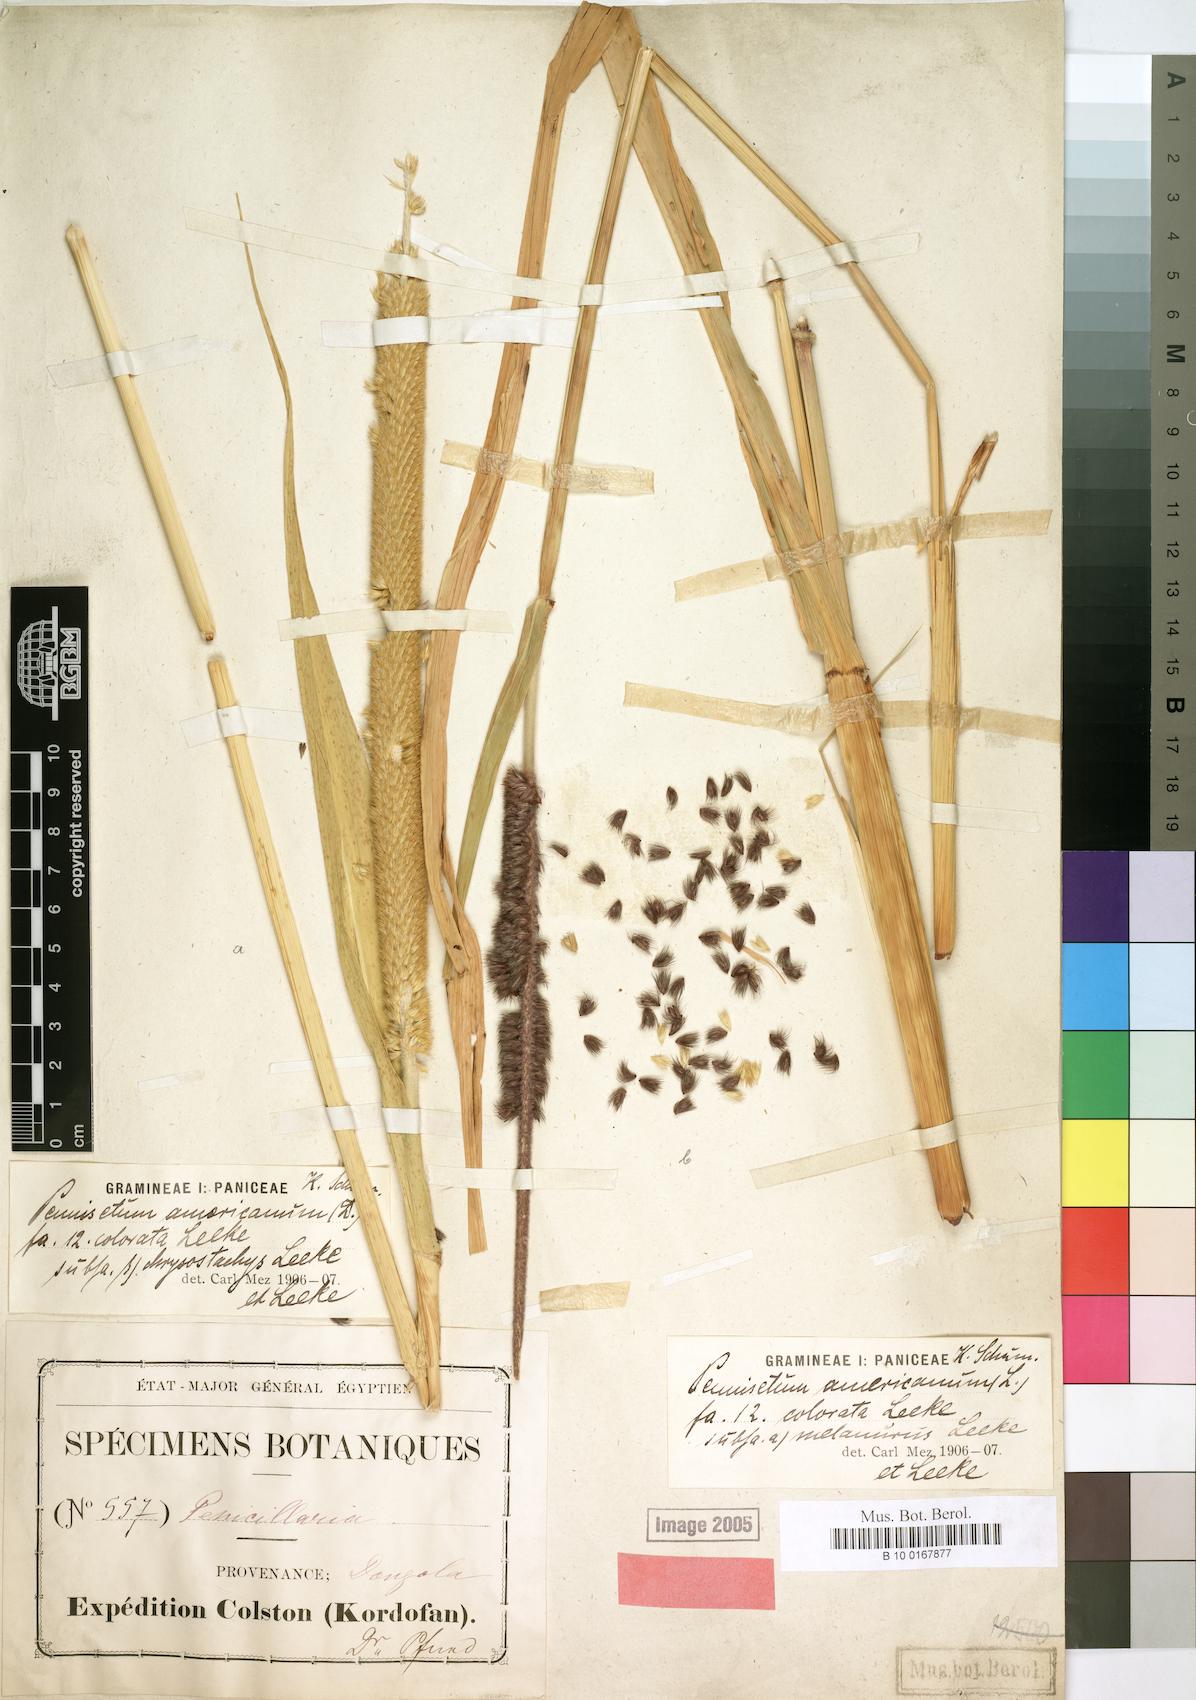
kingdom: Plantae
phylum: Tracheophyta
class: Liliopsida
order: Poales
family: Poaceae
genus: Cenchrus
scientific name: Cenchrus americanus
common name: Pearl millet
